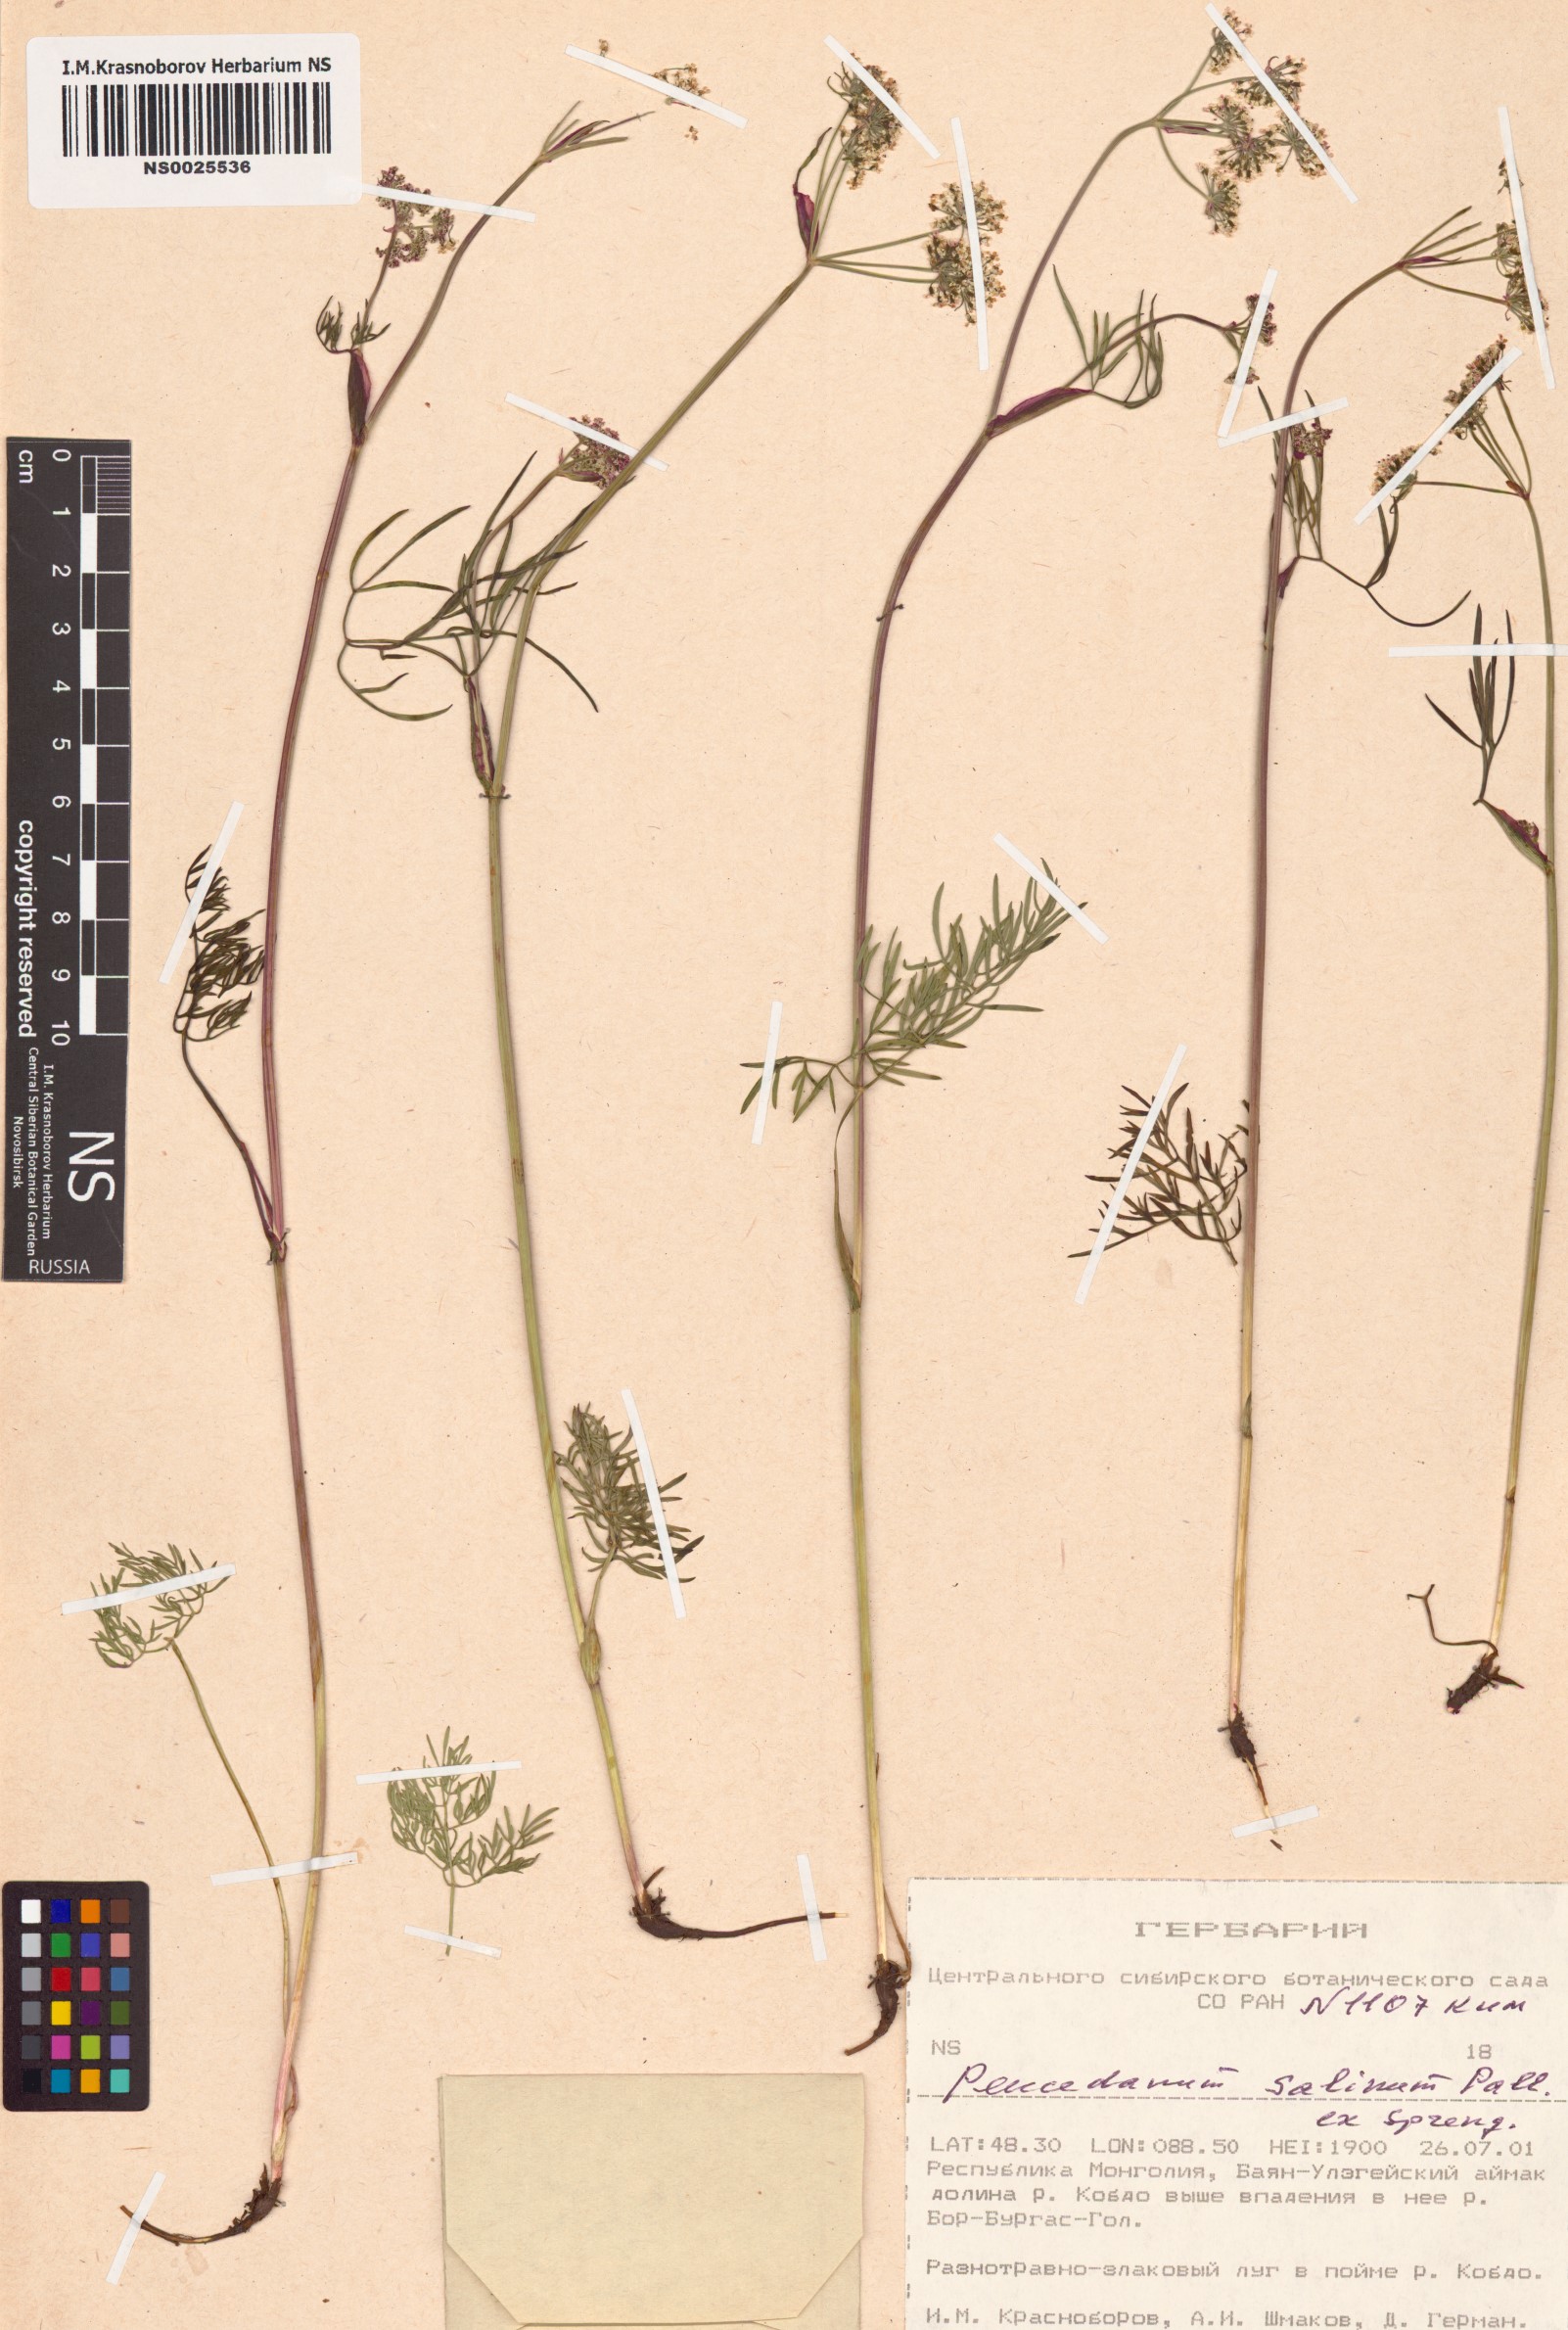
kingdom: Plantae
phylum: Tracheophyta
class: Magnoliopsida
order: Apiales
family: Apiaceae
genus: Ostericum
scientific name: Ostericum tenuifolium
